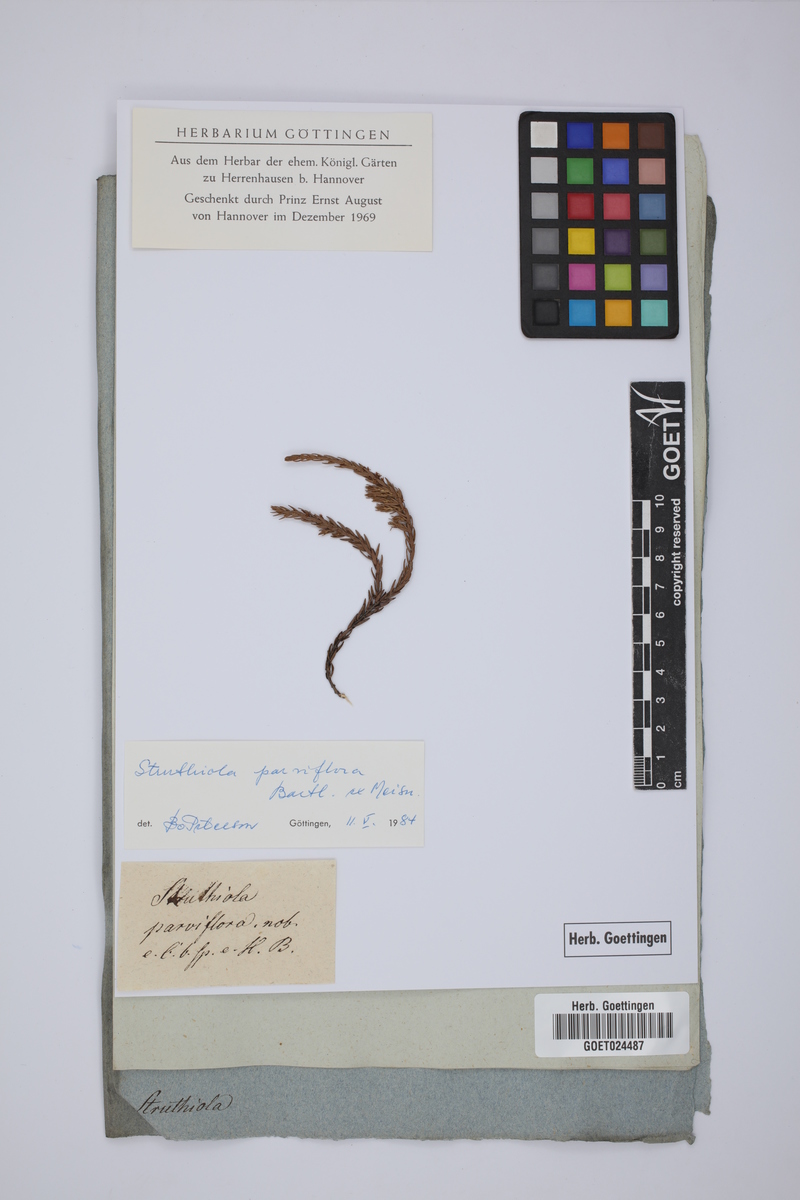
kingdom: Plantae
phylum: Tracheophyta
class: Magnoliopsida
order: Malvales
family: Thymelaeaceae
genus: Struthiola
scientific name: Struthiola parviflora
